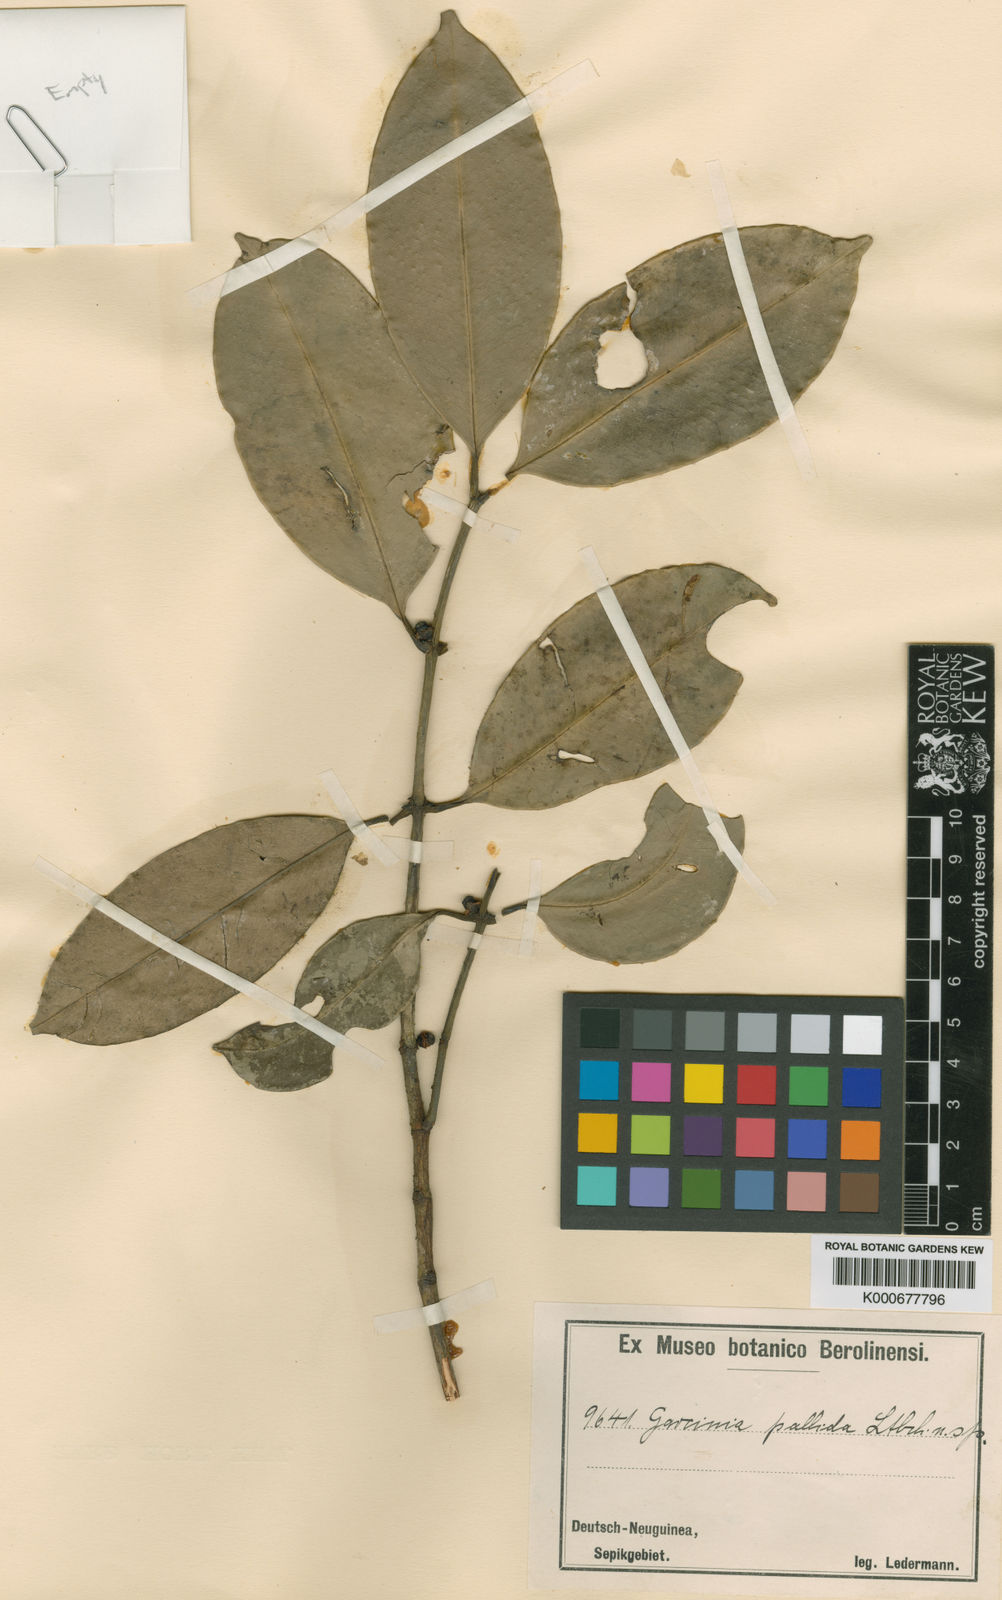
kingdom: Plantae
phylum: Tracheophyta
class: Magnoliopsida
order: Malpighiales
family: Clusiaceae
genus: Garcinia
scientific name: Garcinia pallida
